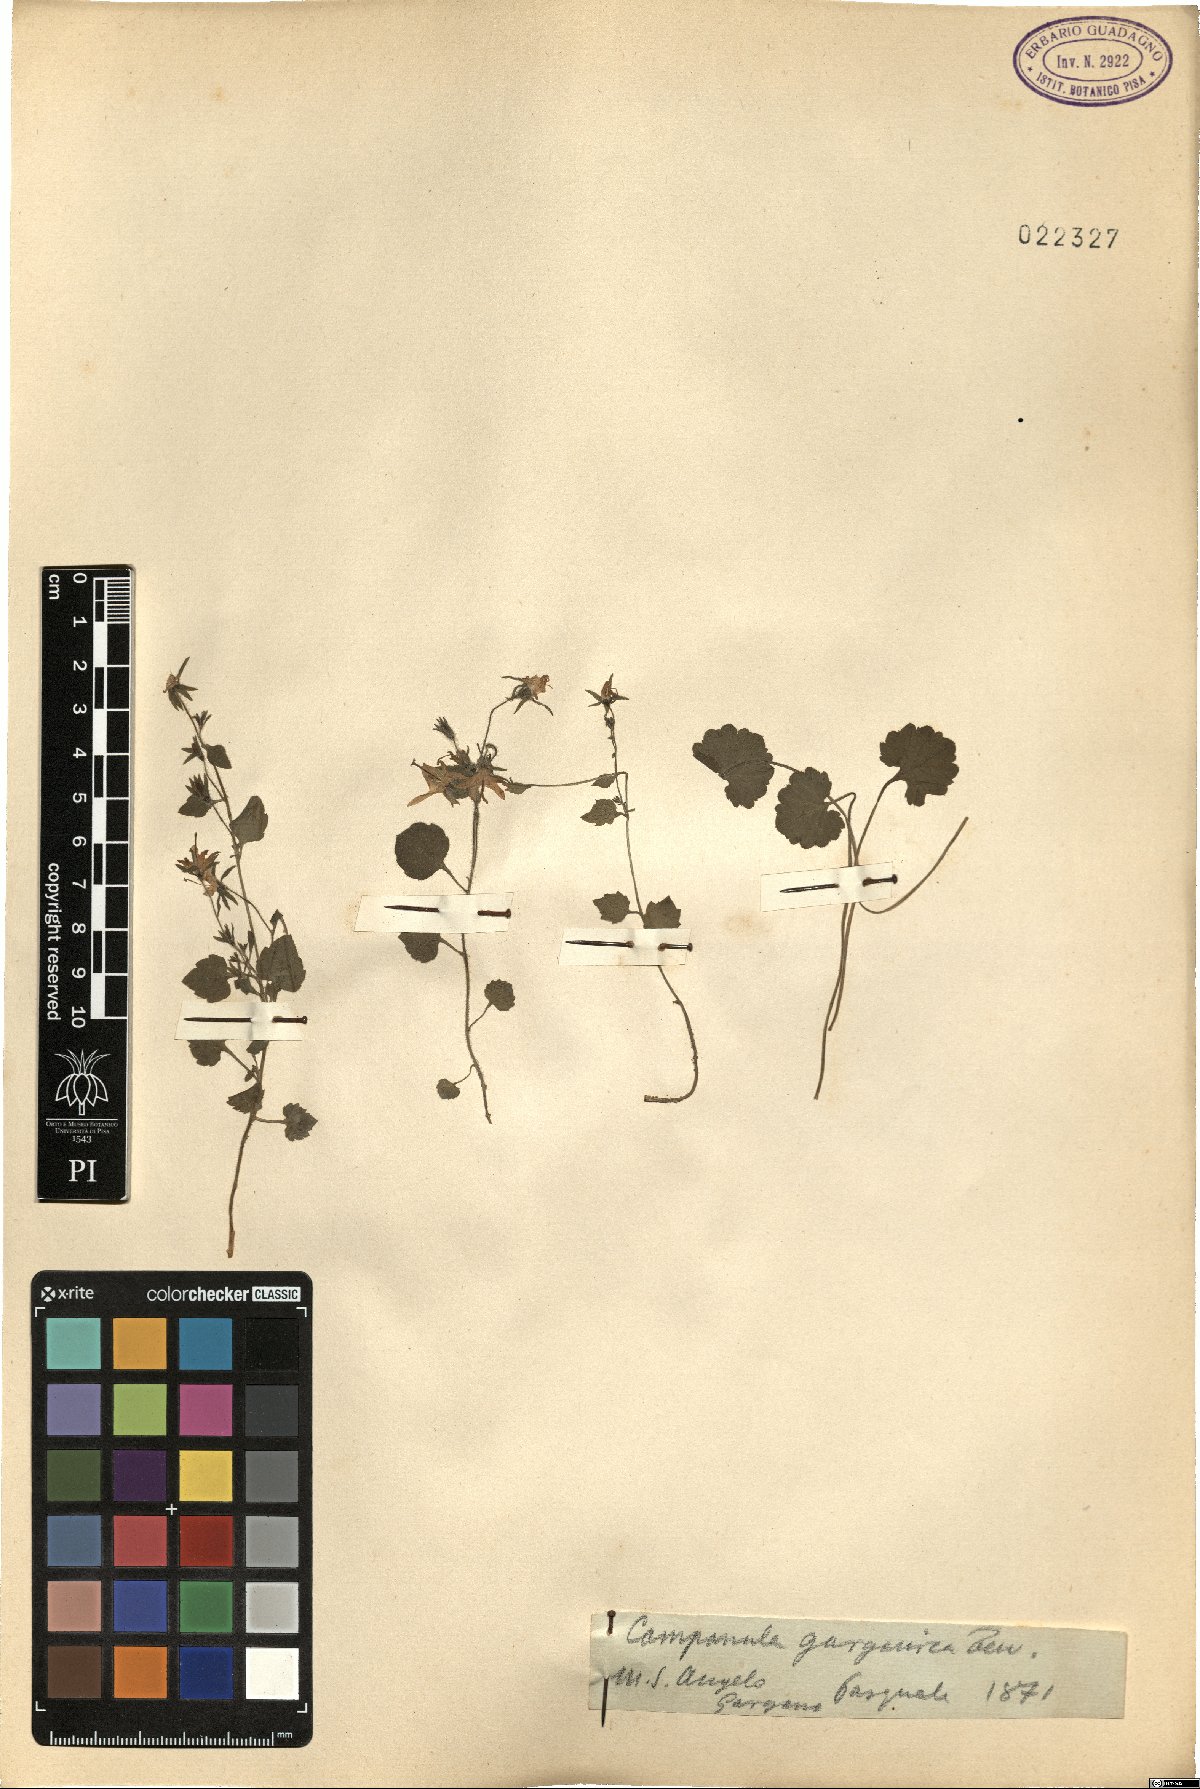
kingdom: Plantae
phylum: Tracheophyta
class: Magnoliopsida
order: Asterales
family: Campanulaceae
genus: Campanula
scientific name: Campanula garganica
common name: Adriatic bellflower
